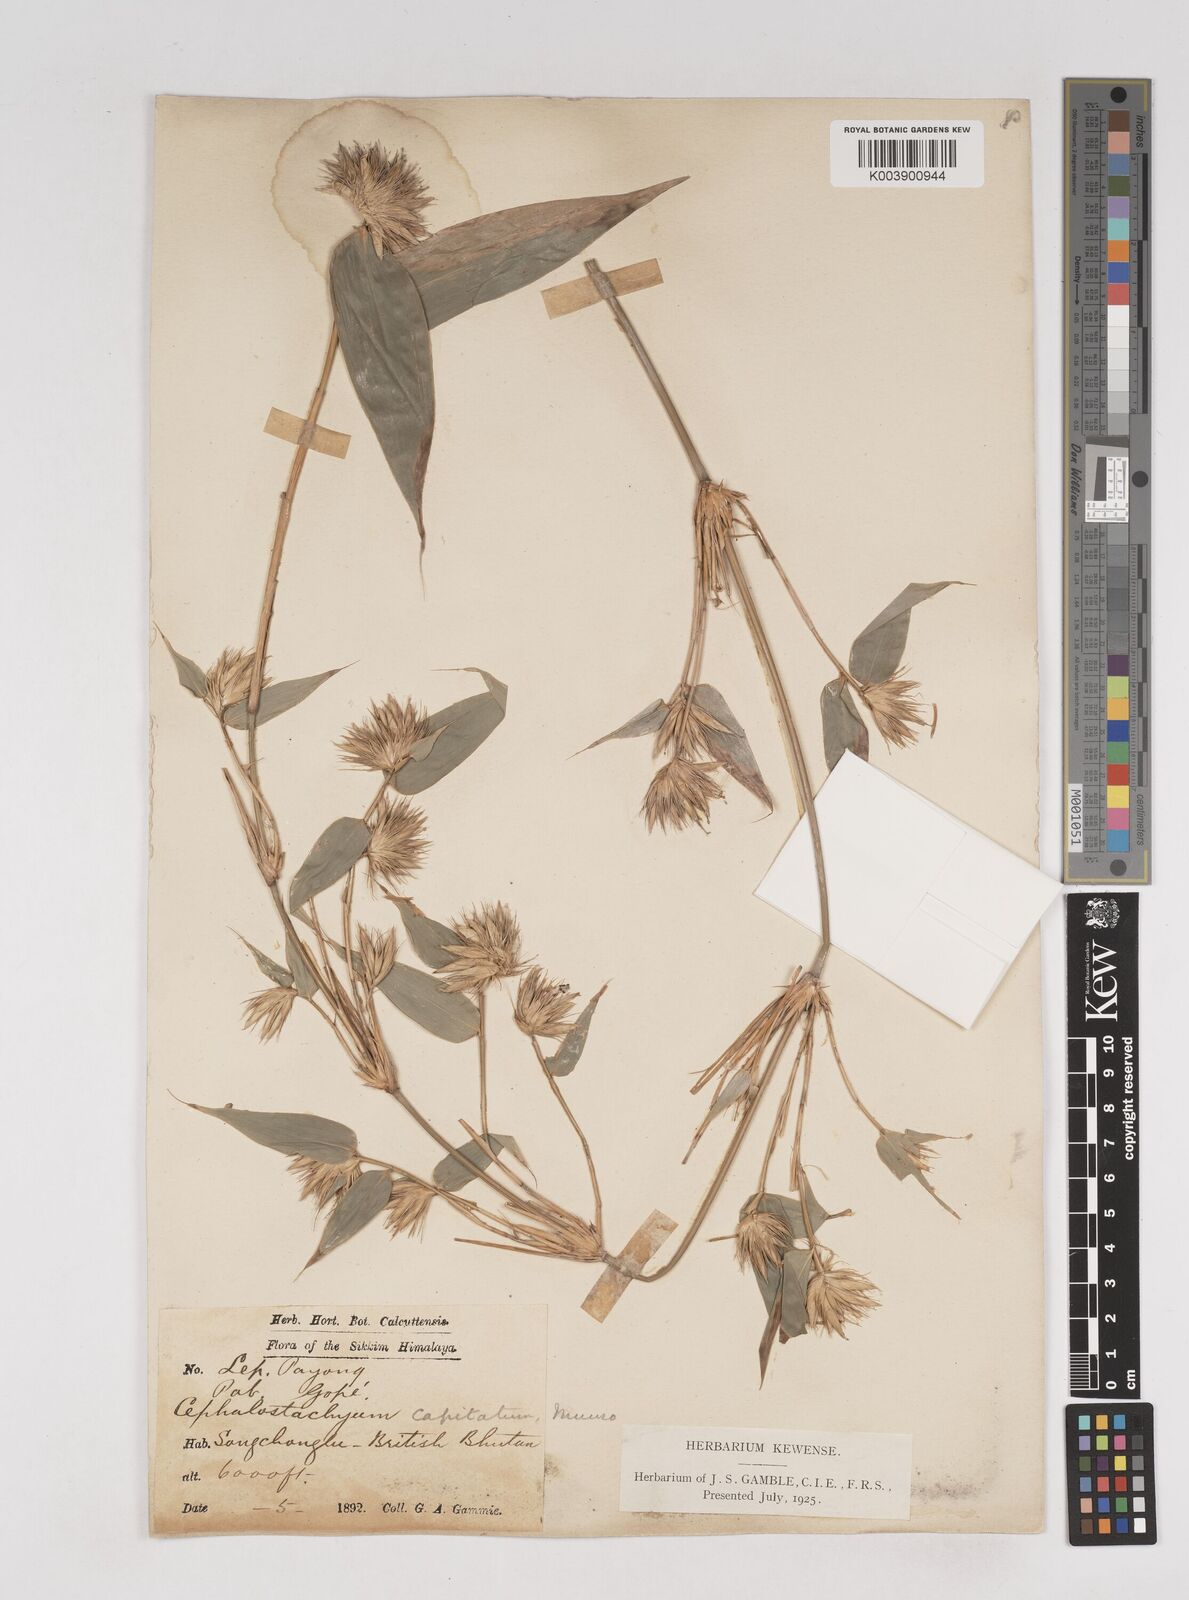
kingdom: Plantae
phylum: Tracheophyta
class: Liliopsida
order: Poales
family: Poaceae
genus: Cephalostachyum
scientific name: Cephalostachyum
